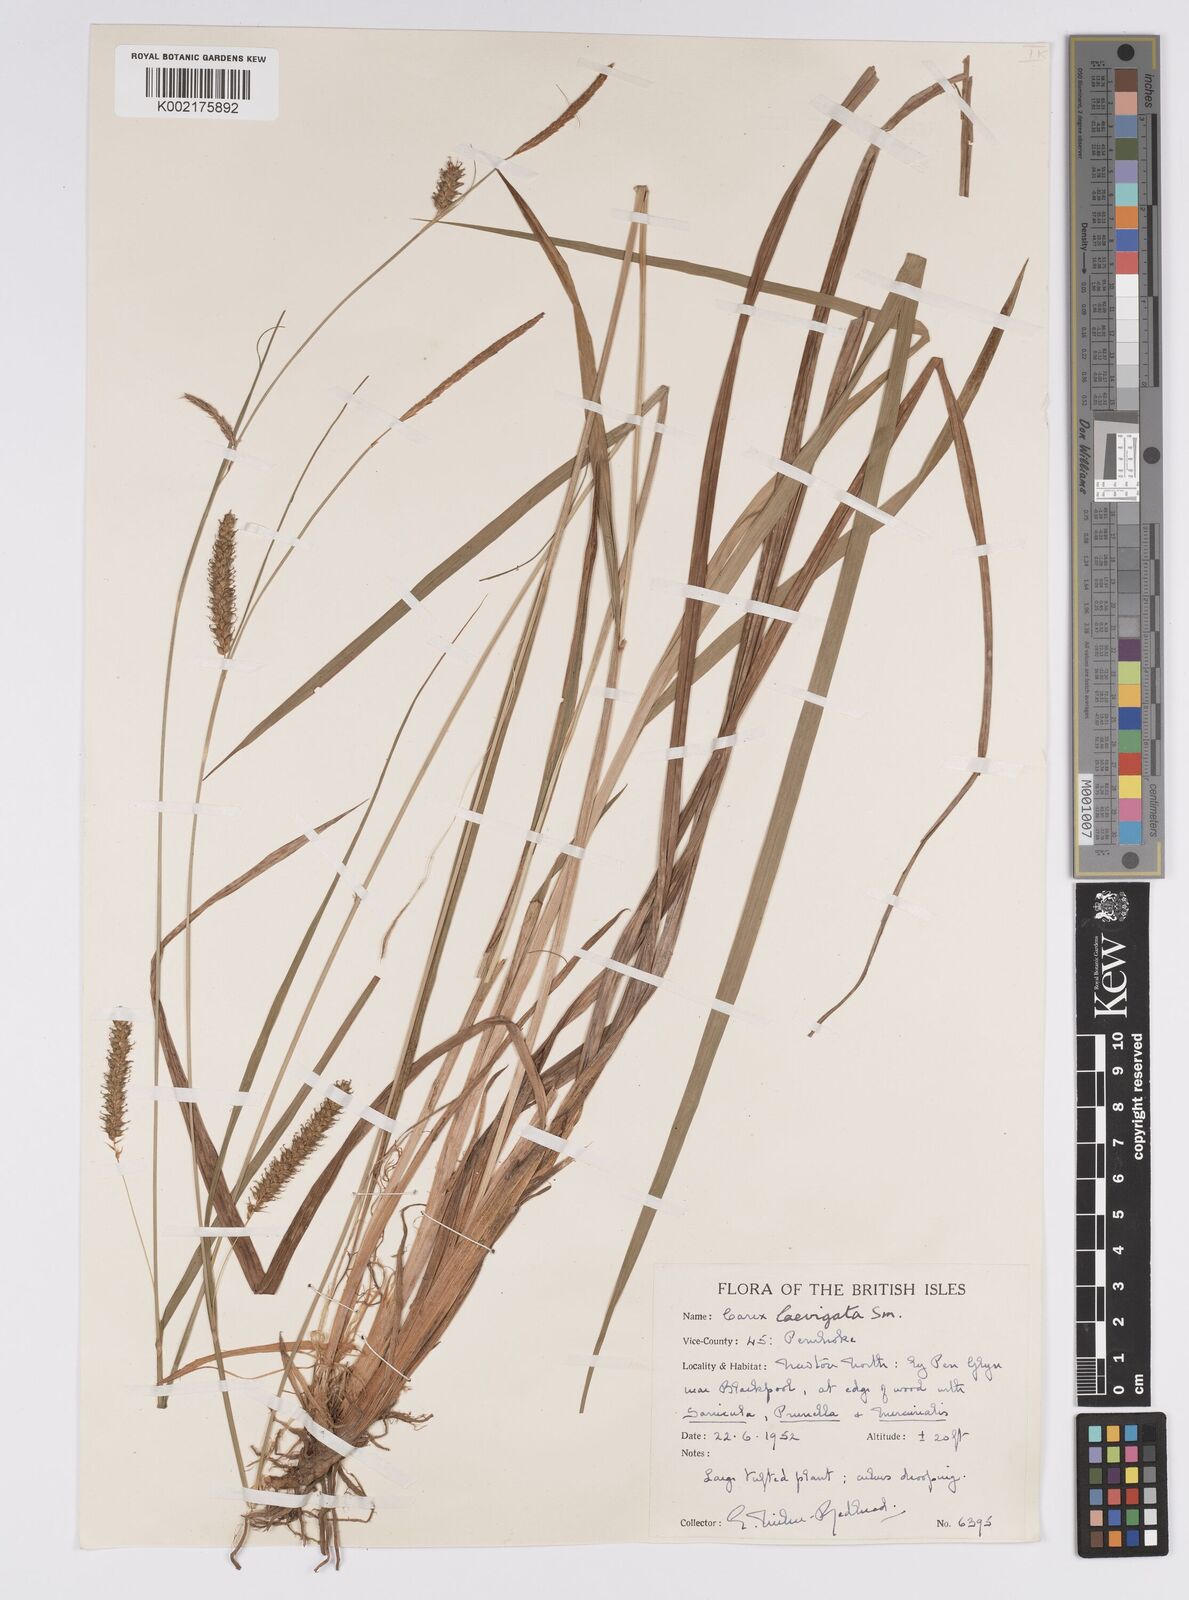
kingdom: Plantae
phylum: Tracheophyta
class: Liliopsida
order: Poales
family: Cyperaceae
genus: Carex
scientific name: Carex laevigata
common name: Smooth-stalked sedge
